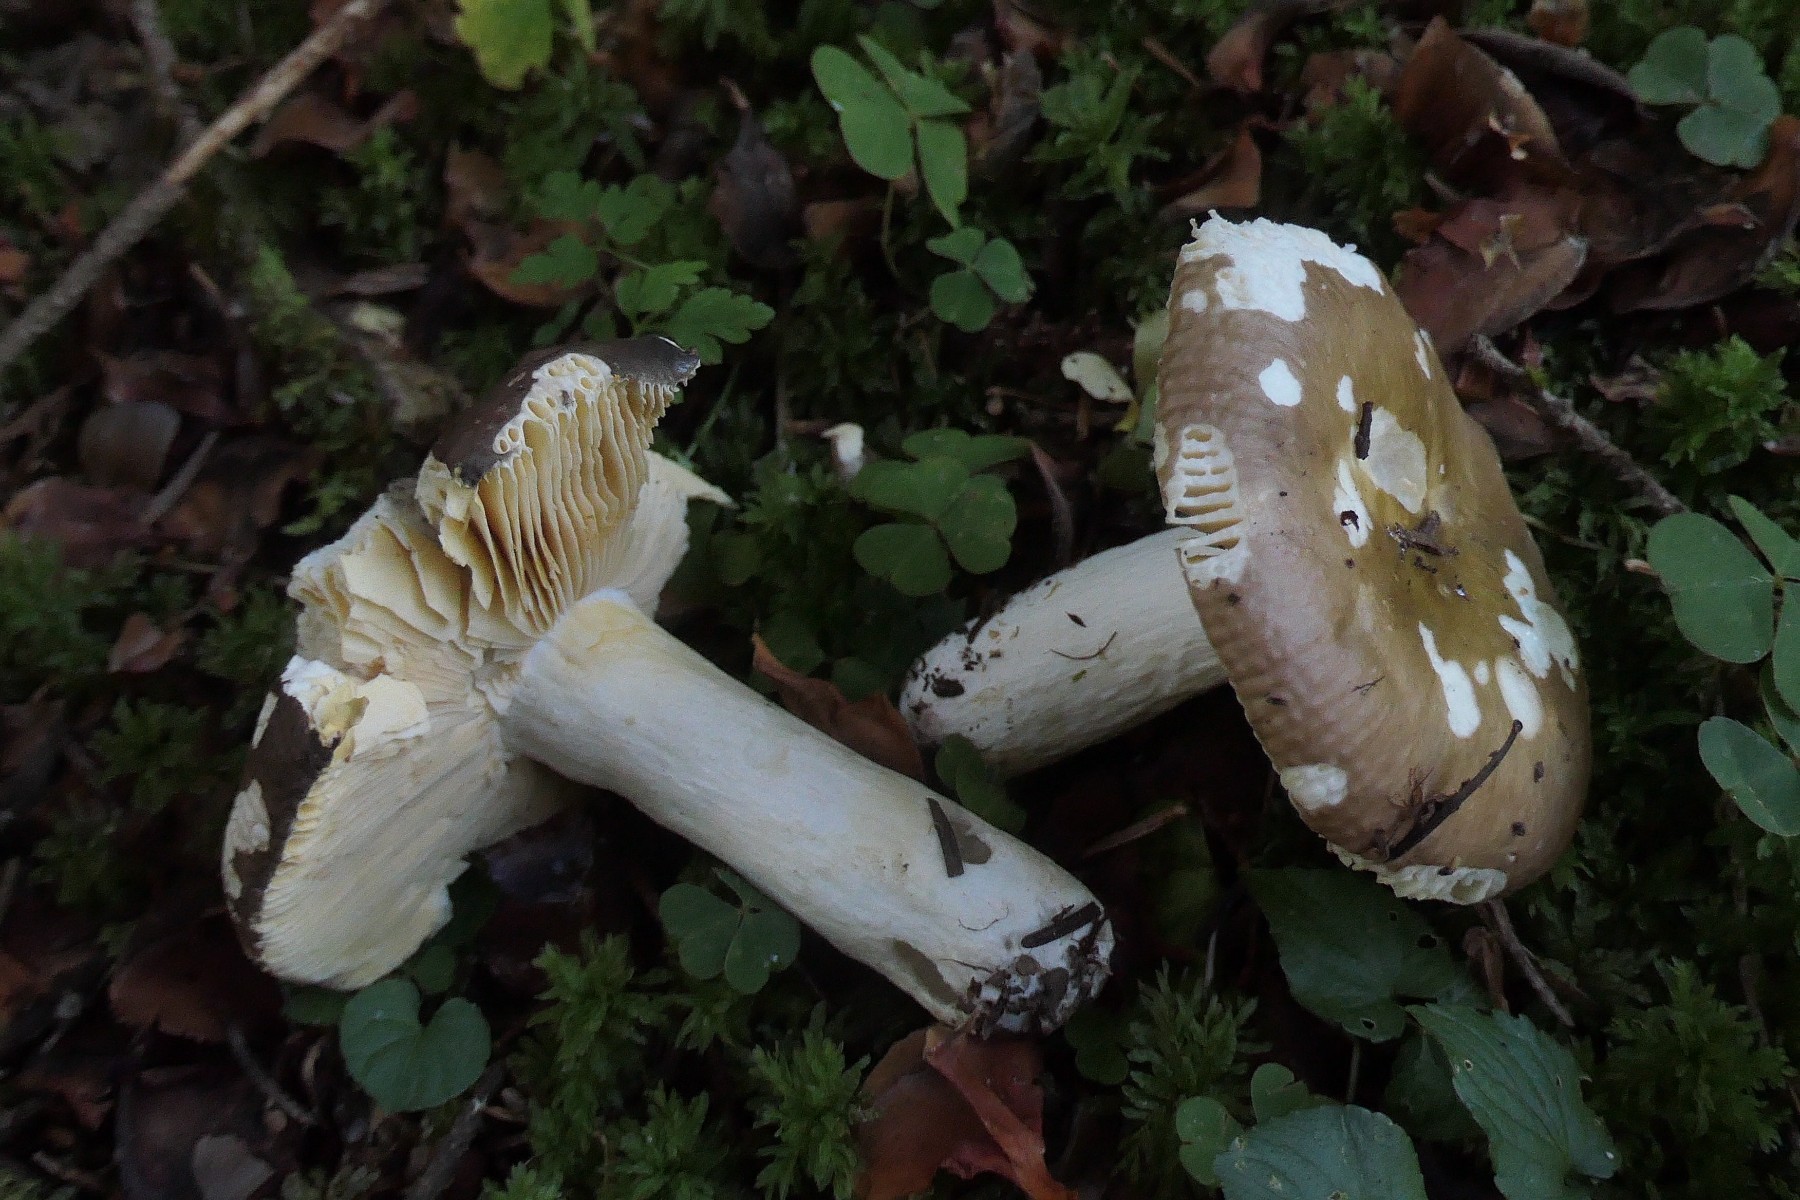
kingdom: Fungi
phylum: Basidiomycota
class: Agaricomycetes
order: Russulales
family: Russulaceae
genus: Russula
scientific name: Russula cuprea
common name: kanel-skørhat
